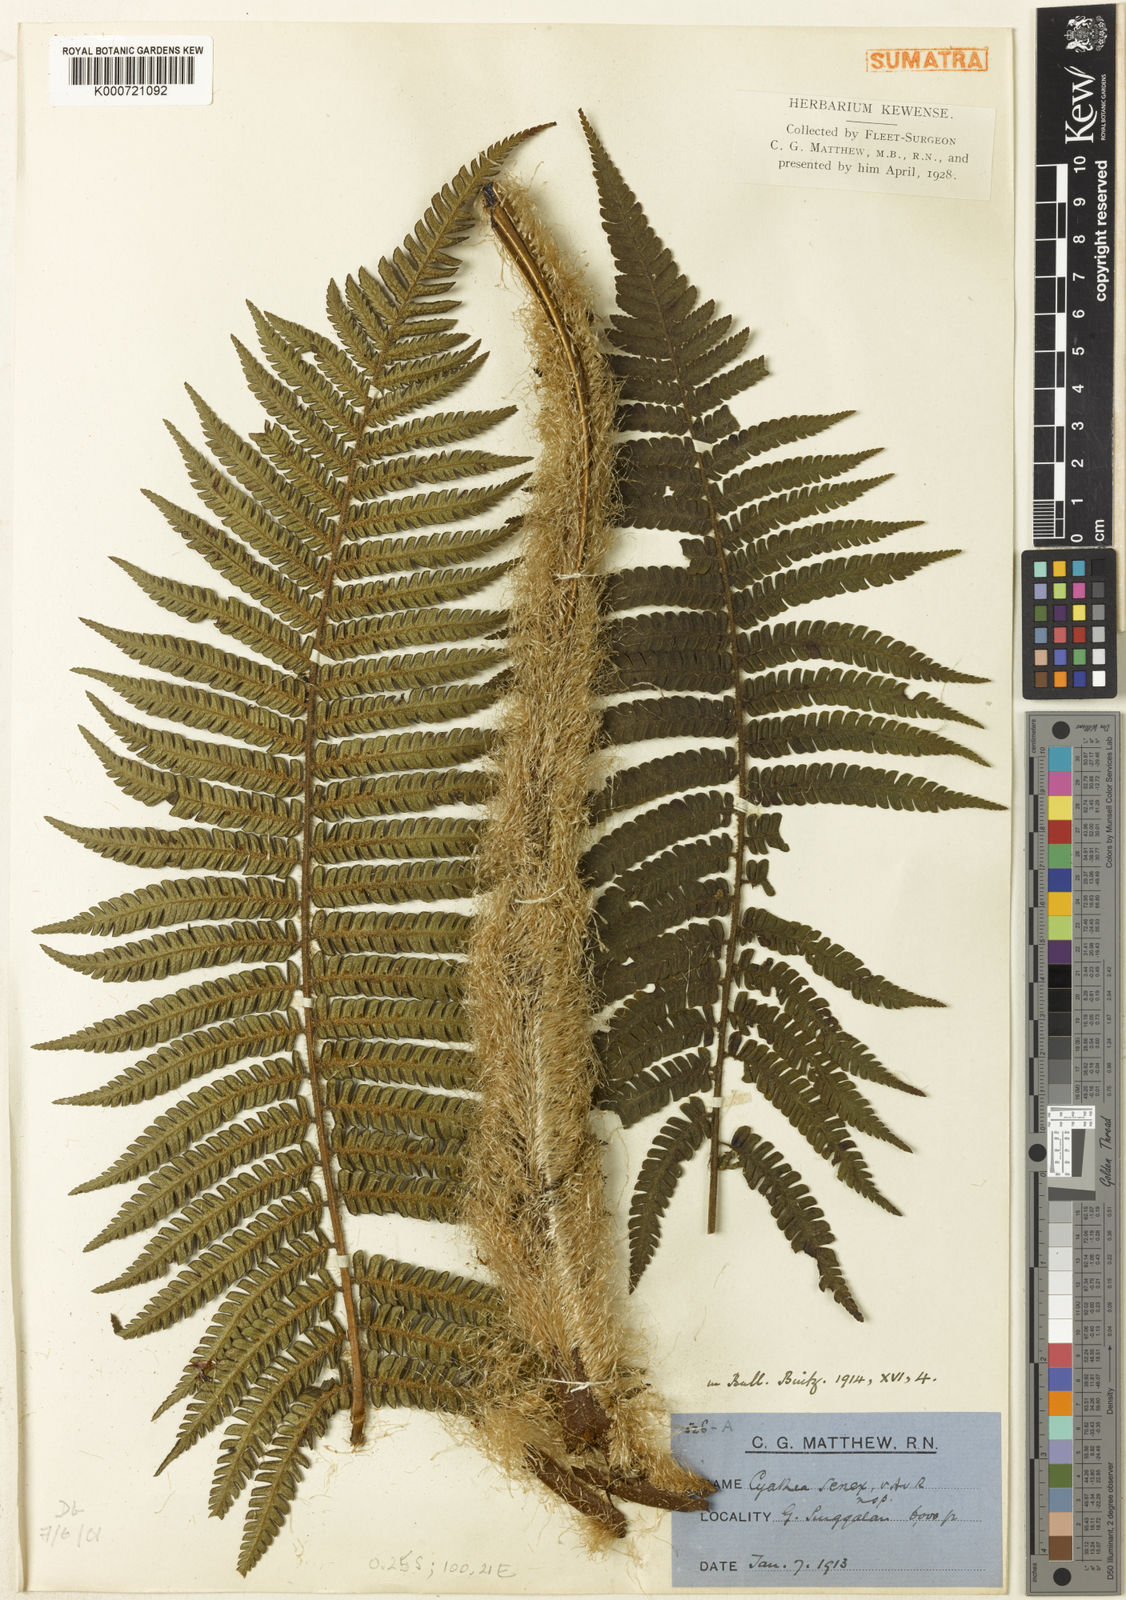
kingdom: Plantae
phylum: Tracheophyta
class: Polypodiopsida
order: Cyatheales
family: Cyatheaceae
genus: Sphaeropteris
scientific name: Sphaeropteris senex
